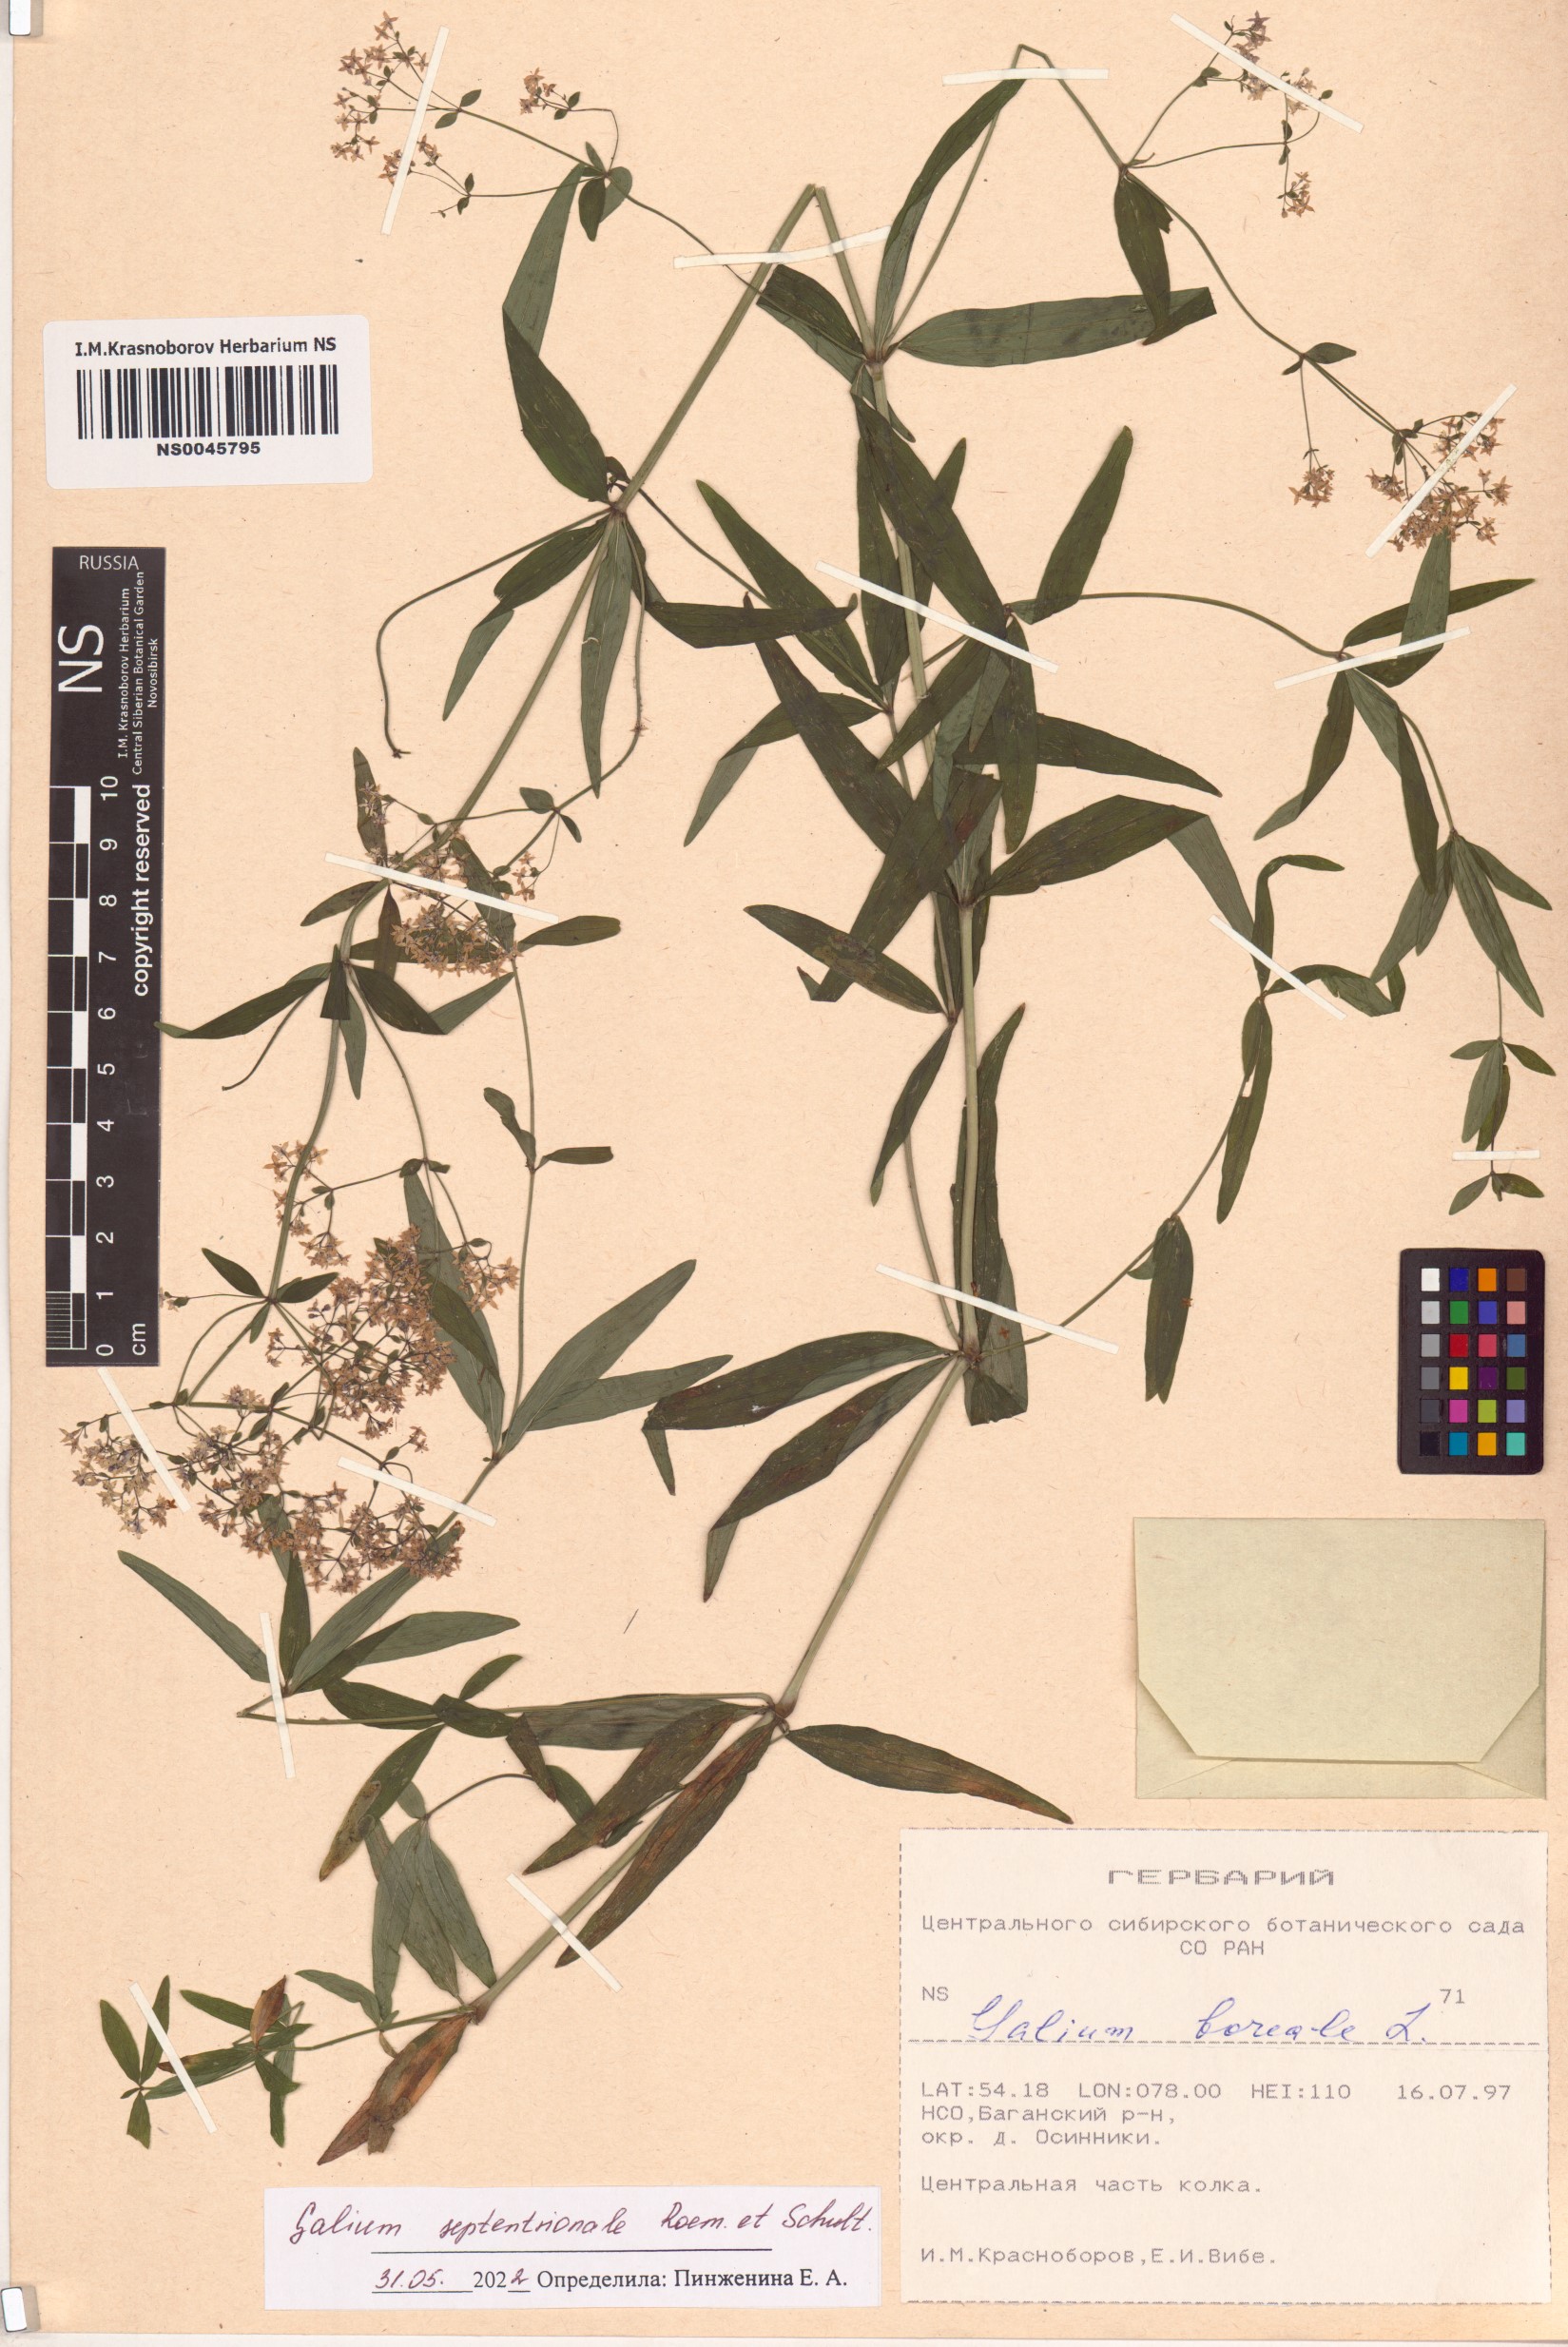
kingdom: Plantae
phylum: Tracheophyta
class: Magnoliopsida
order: Gentianales
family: Rubiaceae
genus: Galium
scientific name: Galium boreale
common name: Northern bedstraw
